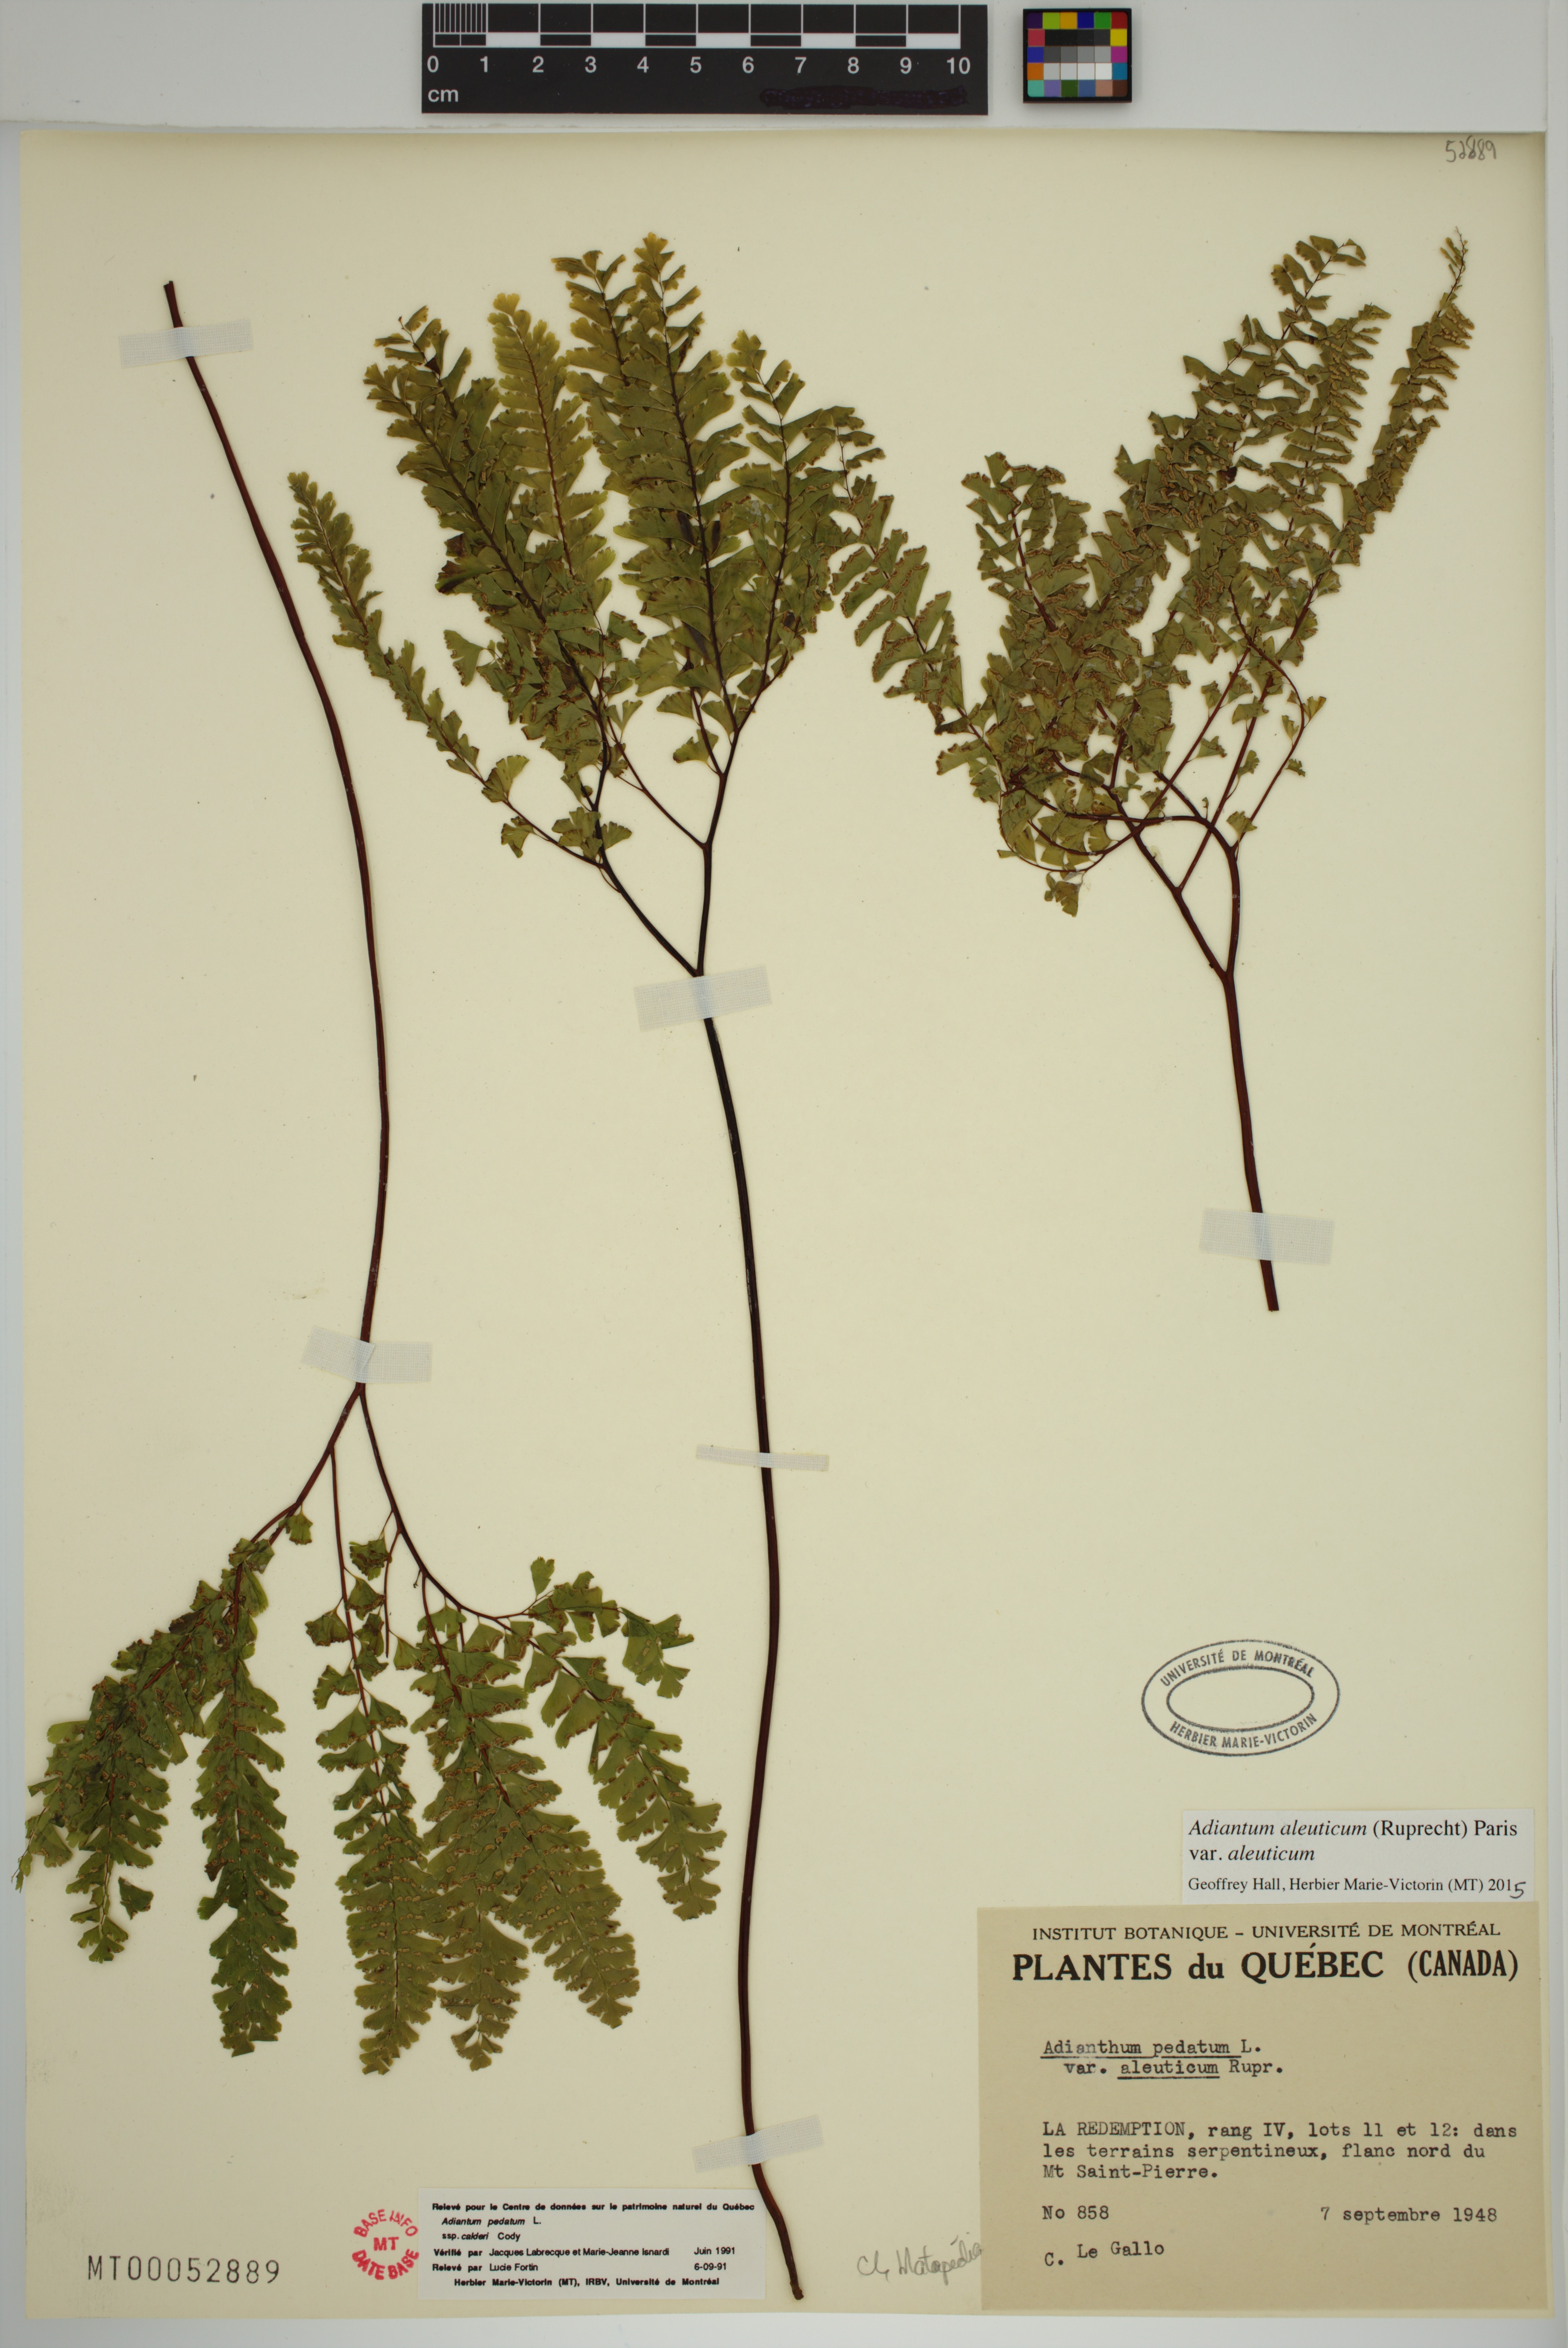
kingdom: Plantae
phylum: Tracheophyta
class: Polypodiopsida
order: Polypodiales
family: Pteridaceae
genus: Adiantum
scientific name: Adiantum aleuticum
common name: Aleutian maidenhair fern
